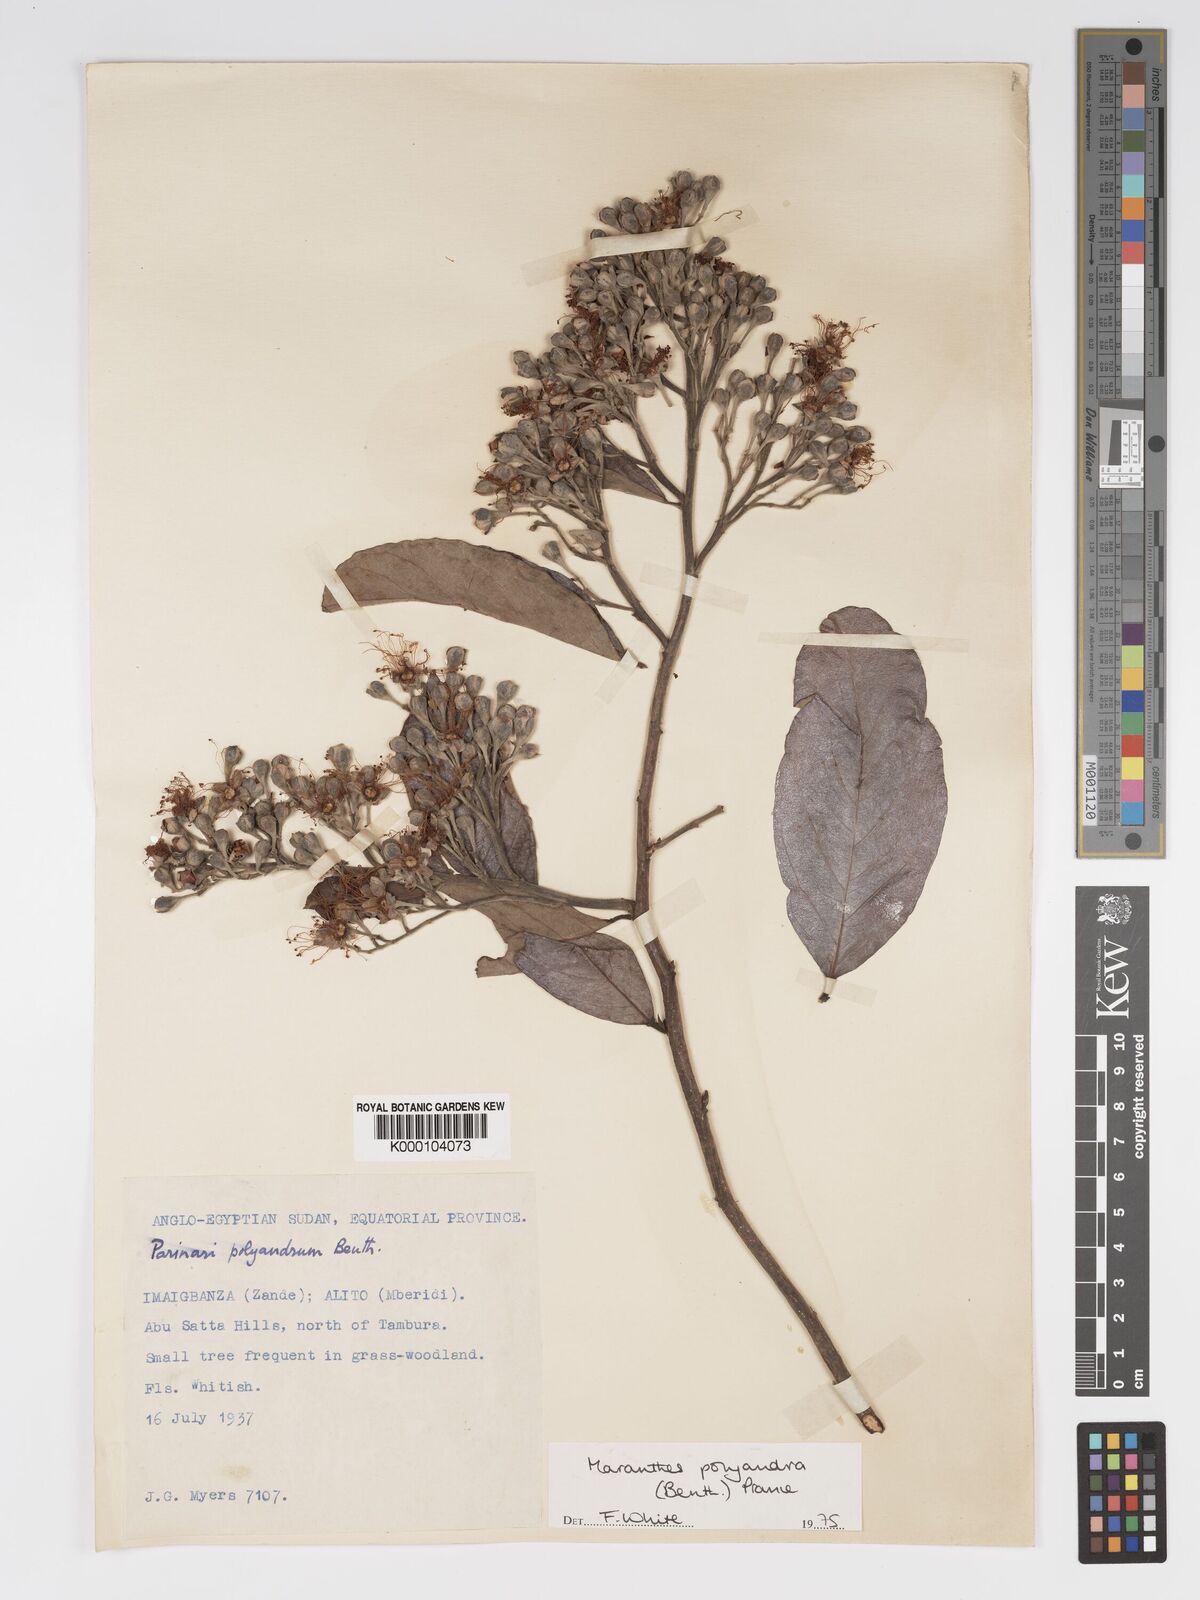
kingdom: Plantae
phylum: Tracheophyta
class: Magnoliopsida
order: Malpighiales
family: Chrysobalanaceae
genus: Maranthes
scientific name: Maranthes polyandra
